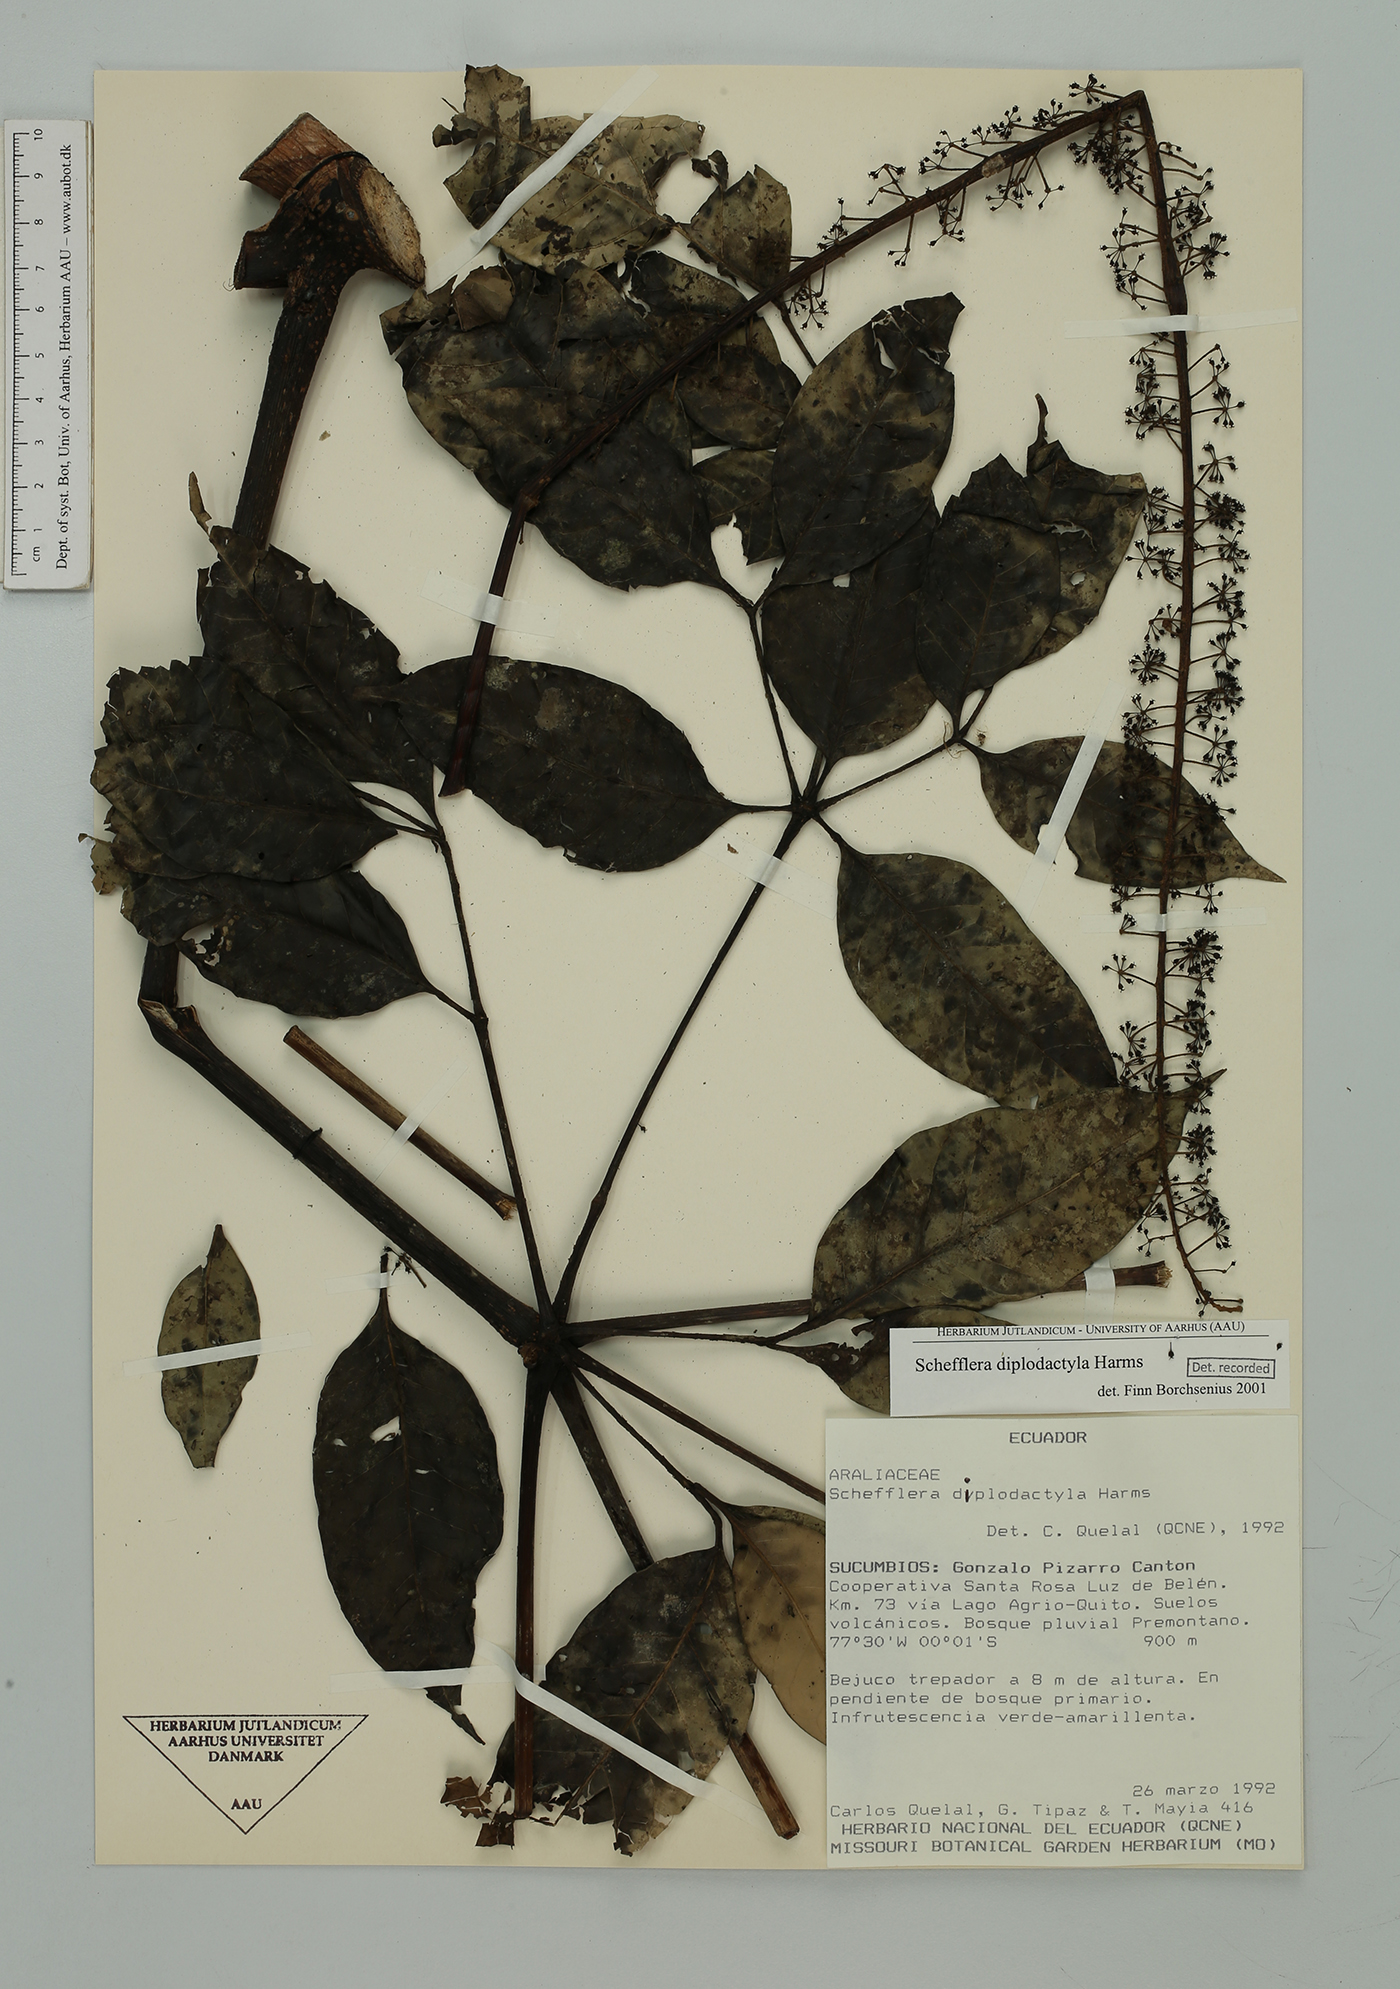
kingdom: Plantae
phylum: Tracheophyta
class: Magnoliopsida
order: Apiales
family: Araliaceae
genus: Sciodaphyllum
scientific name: Sciodaphyllum diplodactylum
